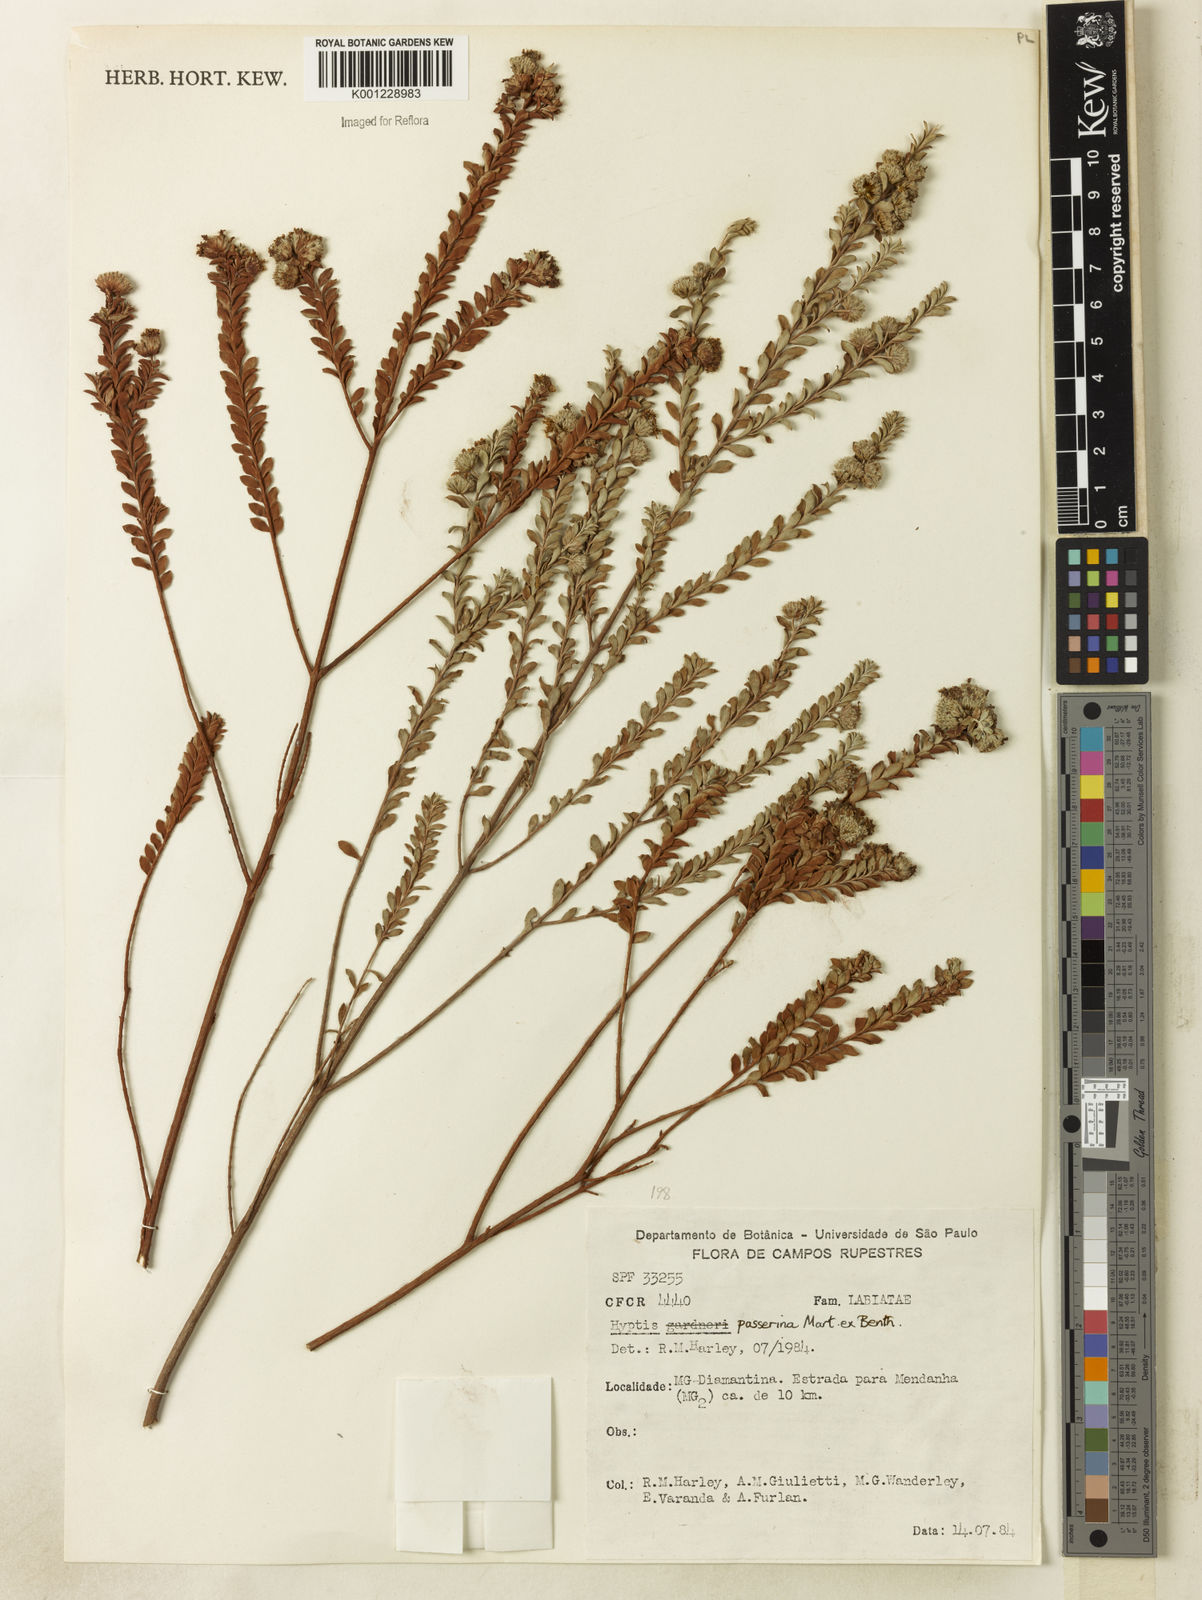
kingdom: Plantae
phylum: Tracheophyta
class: Magnoliopsida
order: Lamiales
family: Lamiaceae
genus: Hyptis
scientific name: Hyptis passerina
